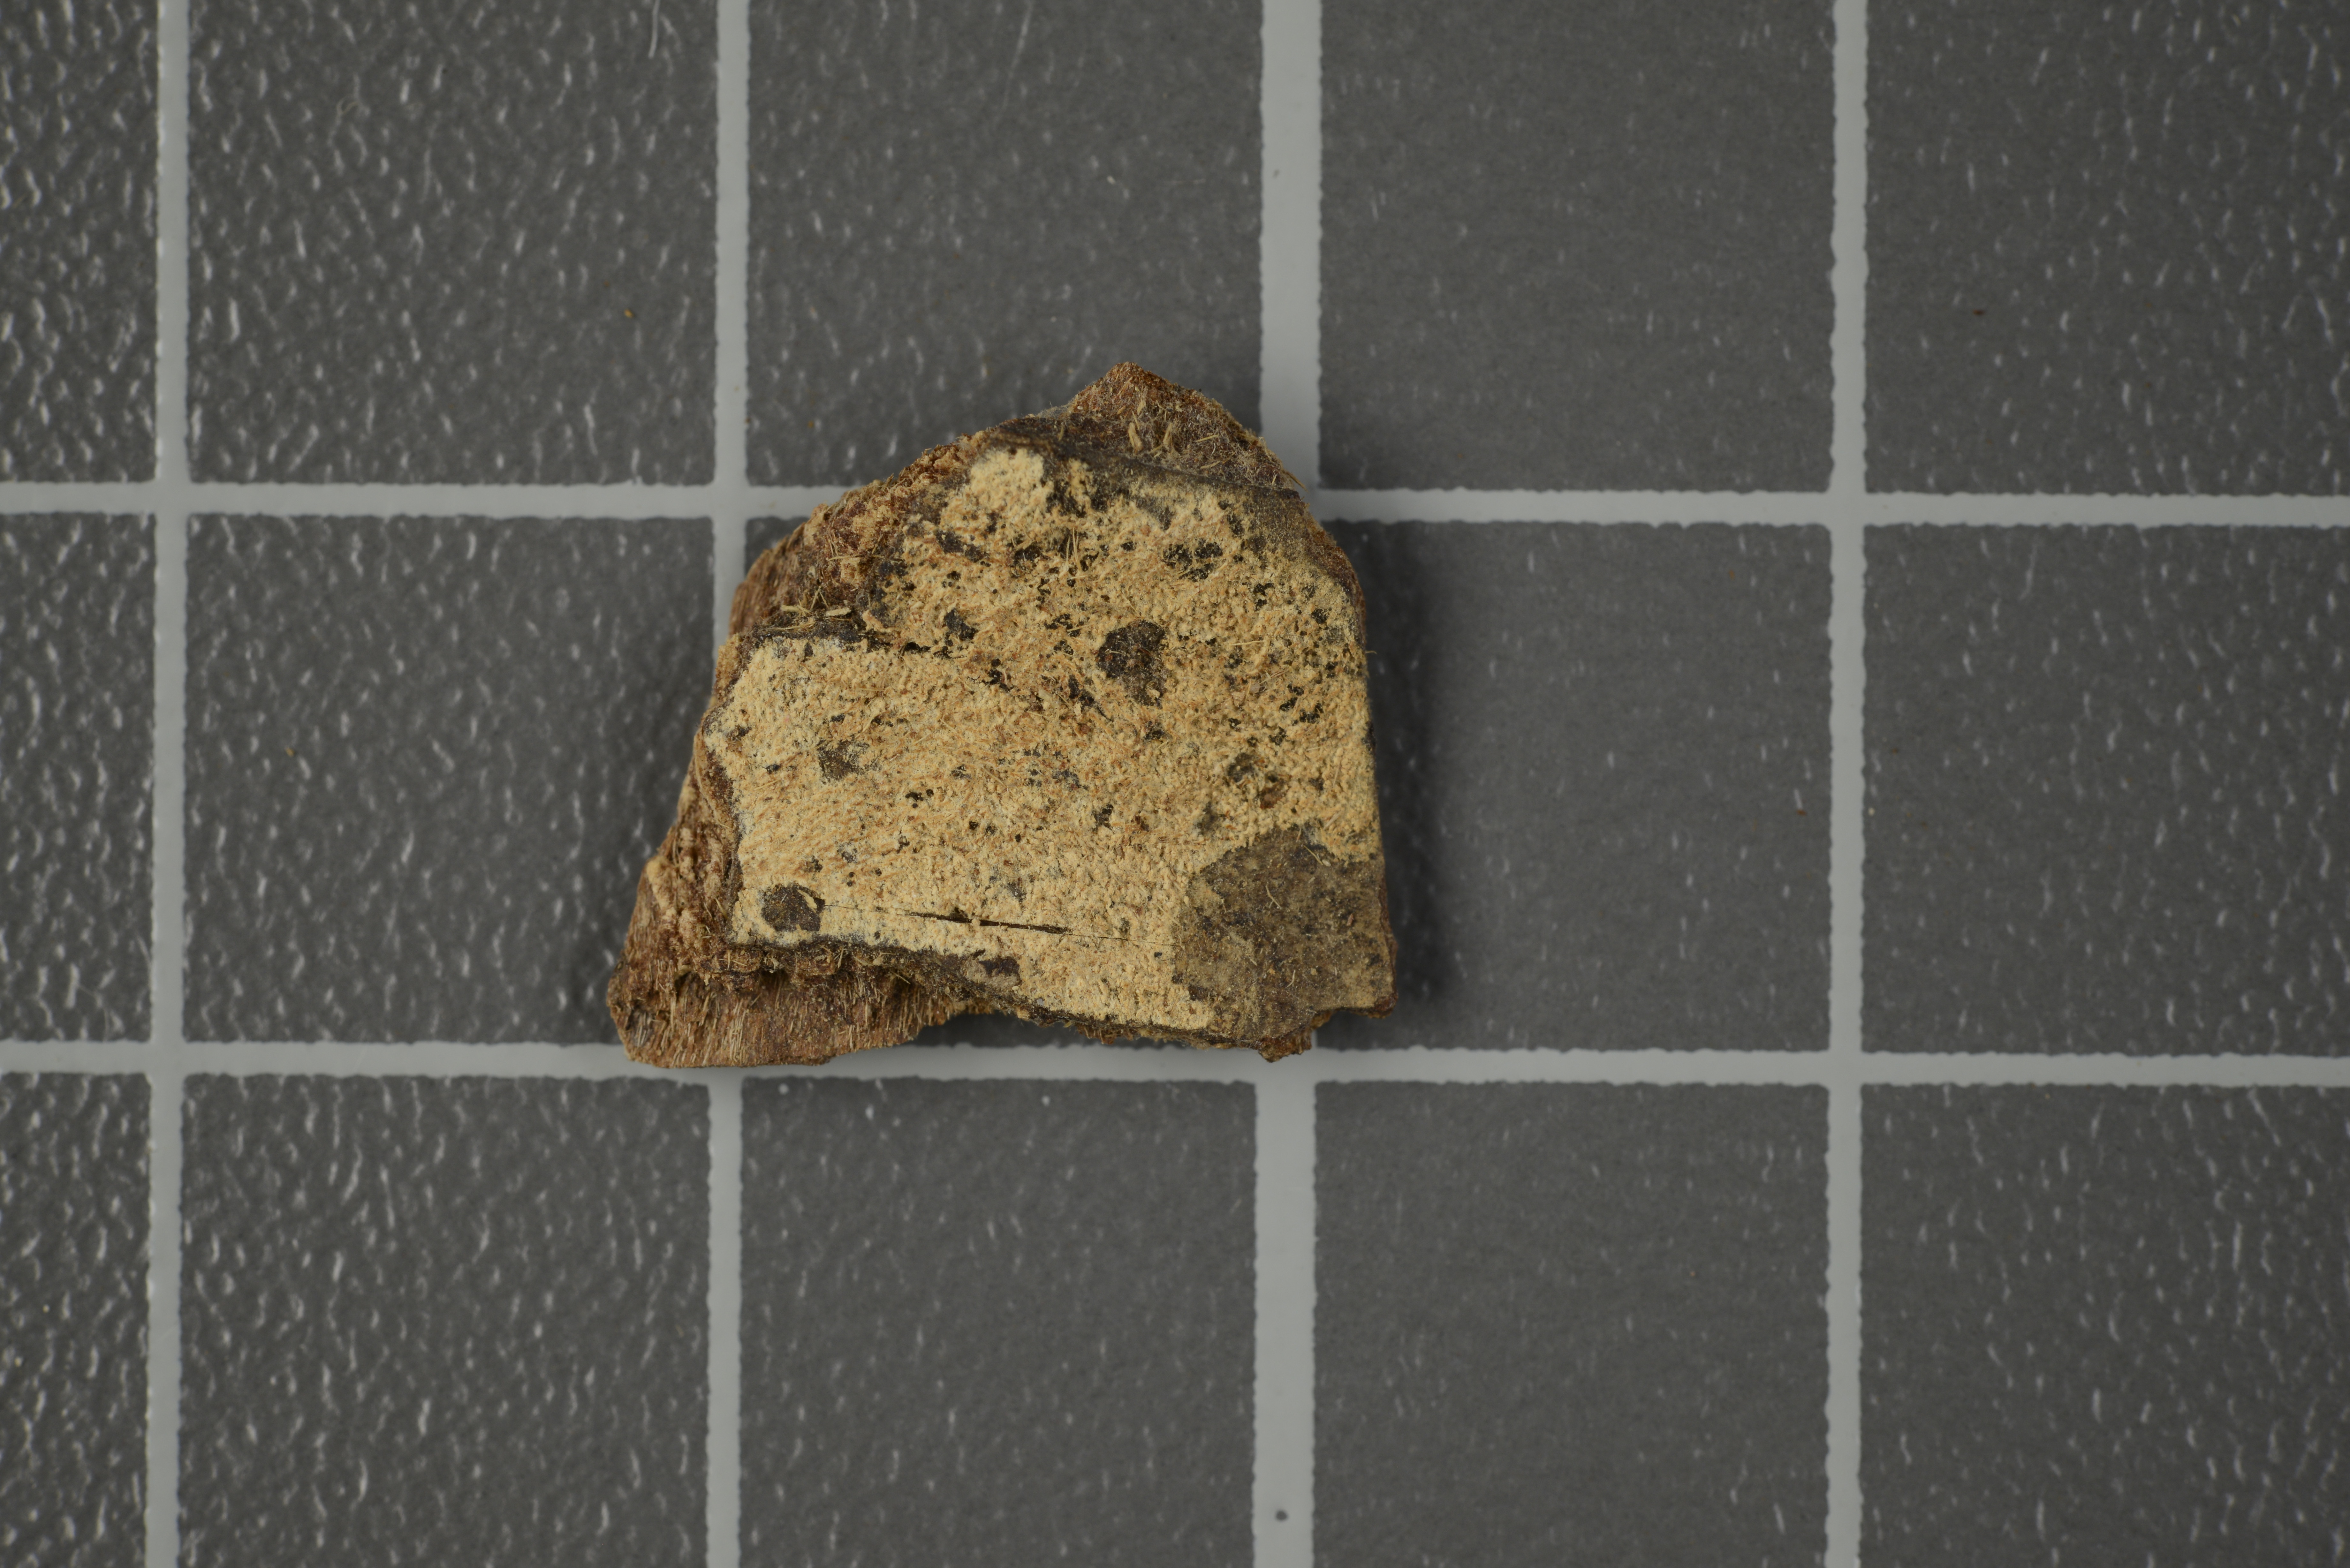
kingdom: Fungi
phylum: Basidiomycota
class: Agaricomycetes
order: Hymenochaetales
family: Hyphodontiaceae
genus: Hyphodontia
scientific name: Hyphodontia arguta
